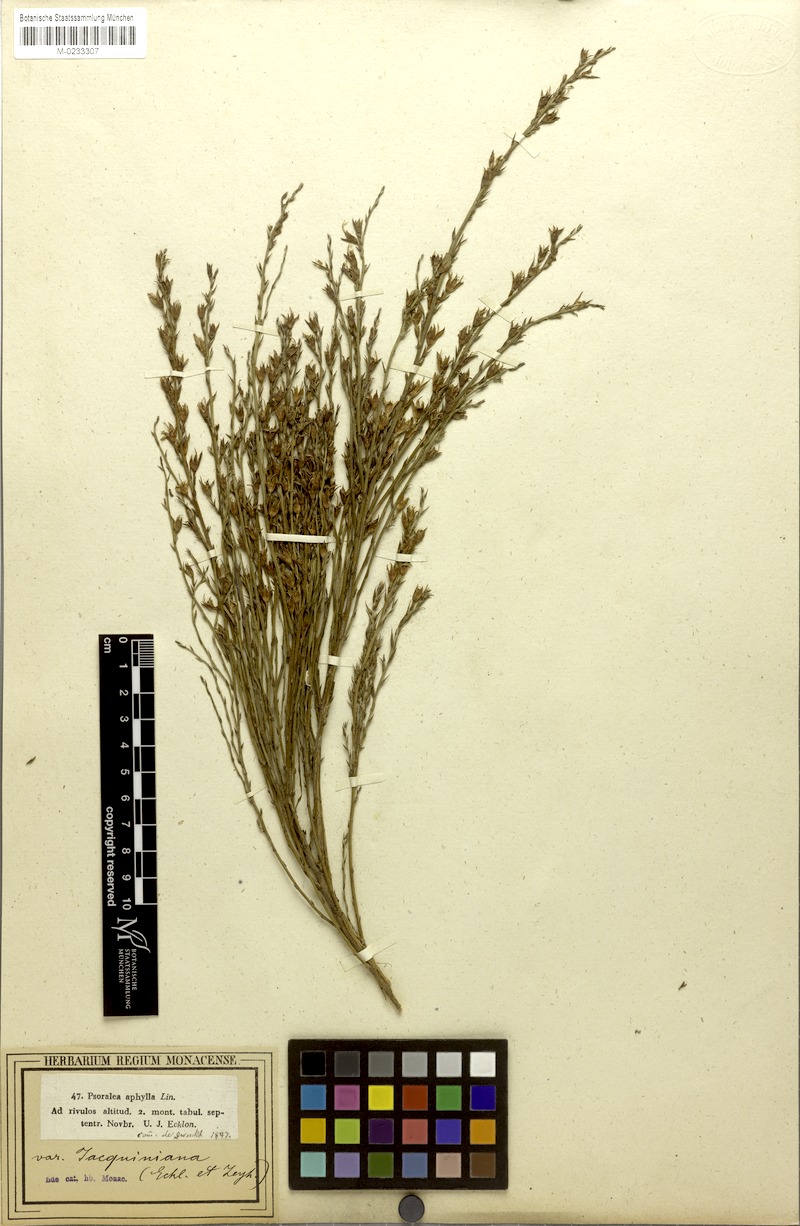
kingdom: Plantae
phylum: Tracheophyta
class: Magnoliopsida
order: Fabales
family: Fabaceae
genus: Psoralea
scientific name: Psoralea aphylla
